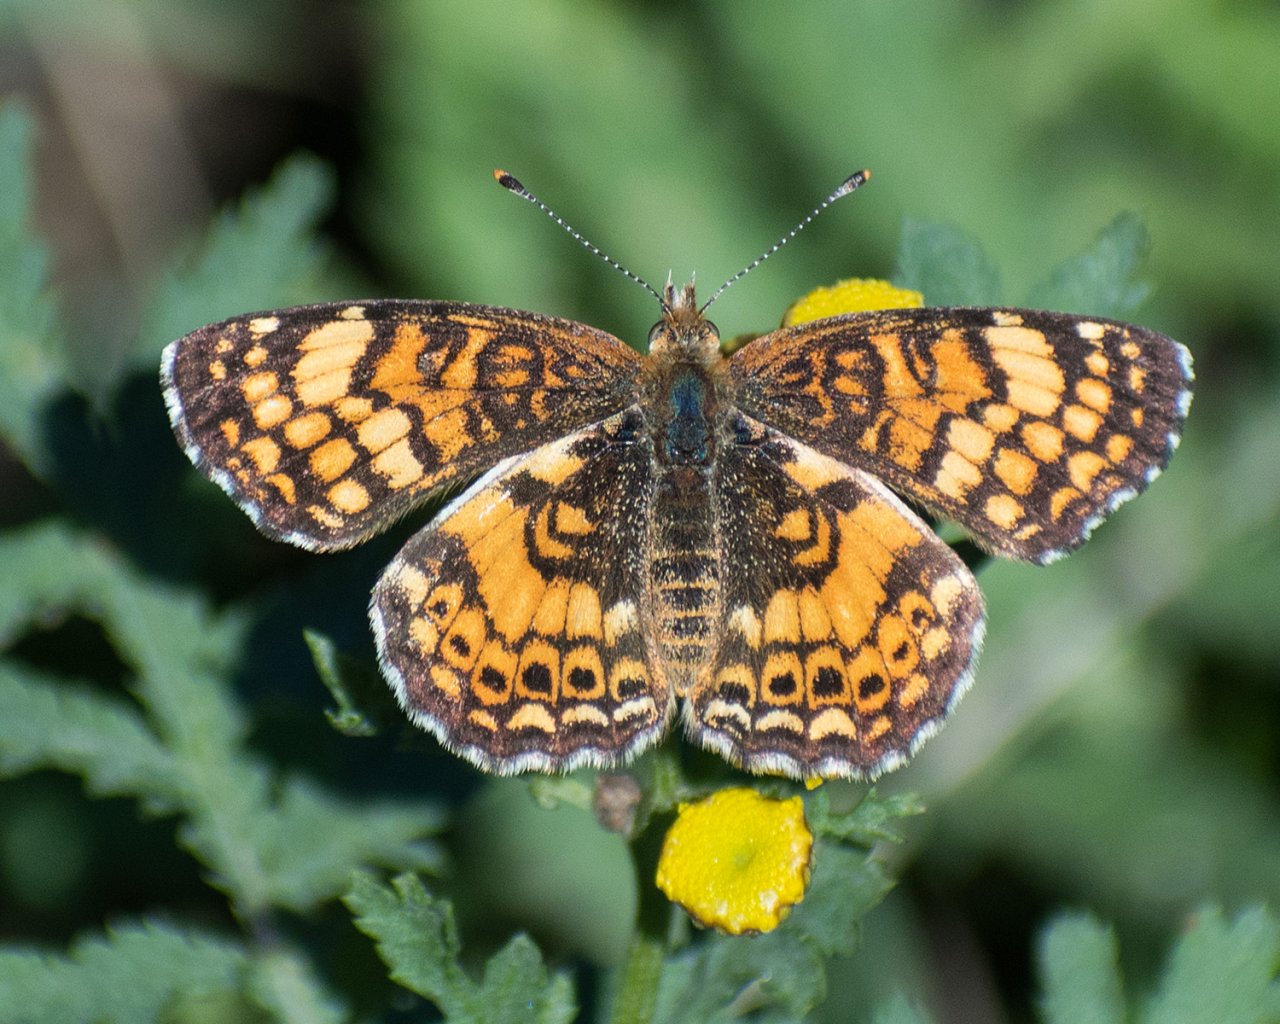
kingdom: Animalia
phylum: Arthropoda
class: Insecta
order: Lepidoptera
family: Nymphalidae
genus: Eresia
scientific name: Eresia aveyrona
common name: Mylitta Crescent
